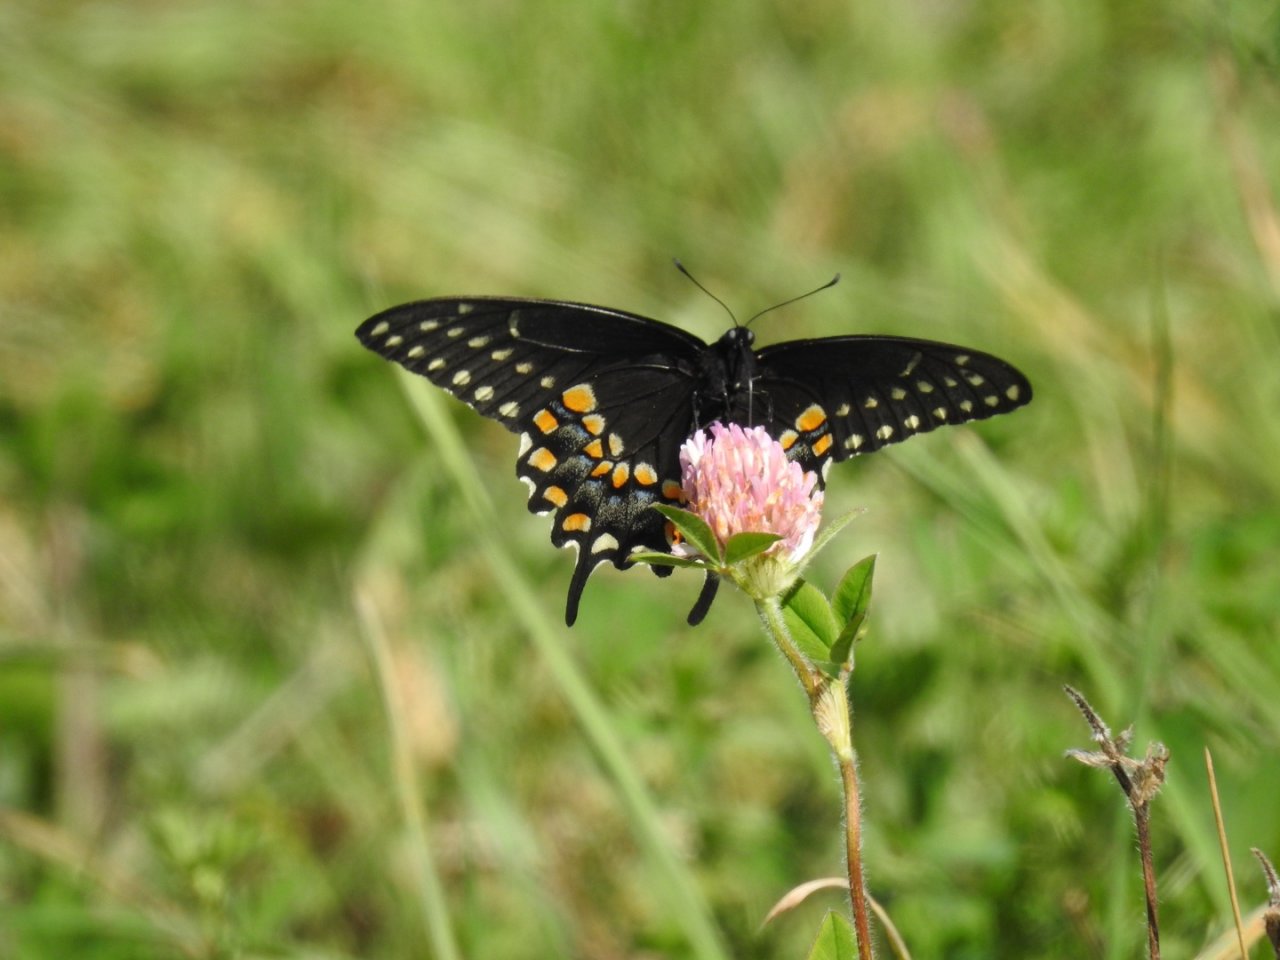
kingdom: Animalia
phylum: Arthropoda
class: Insecta
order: Lepidoptera
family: Papilionidae
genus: Papilio
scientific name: Papilio polyxenes
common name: Black Swallowtail
